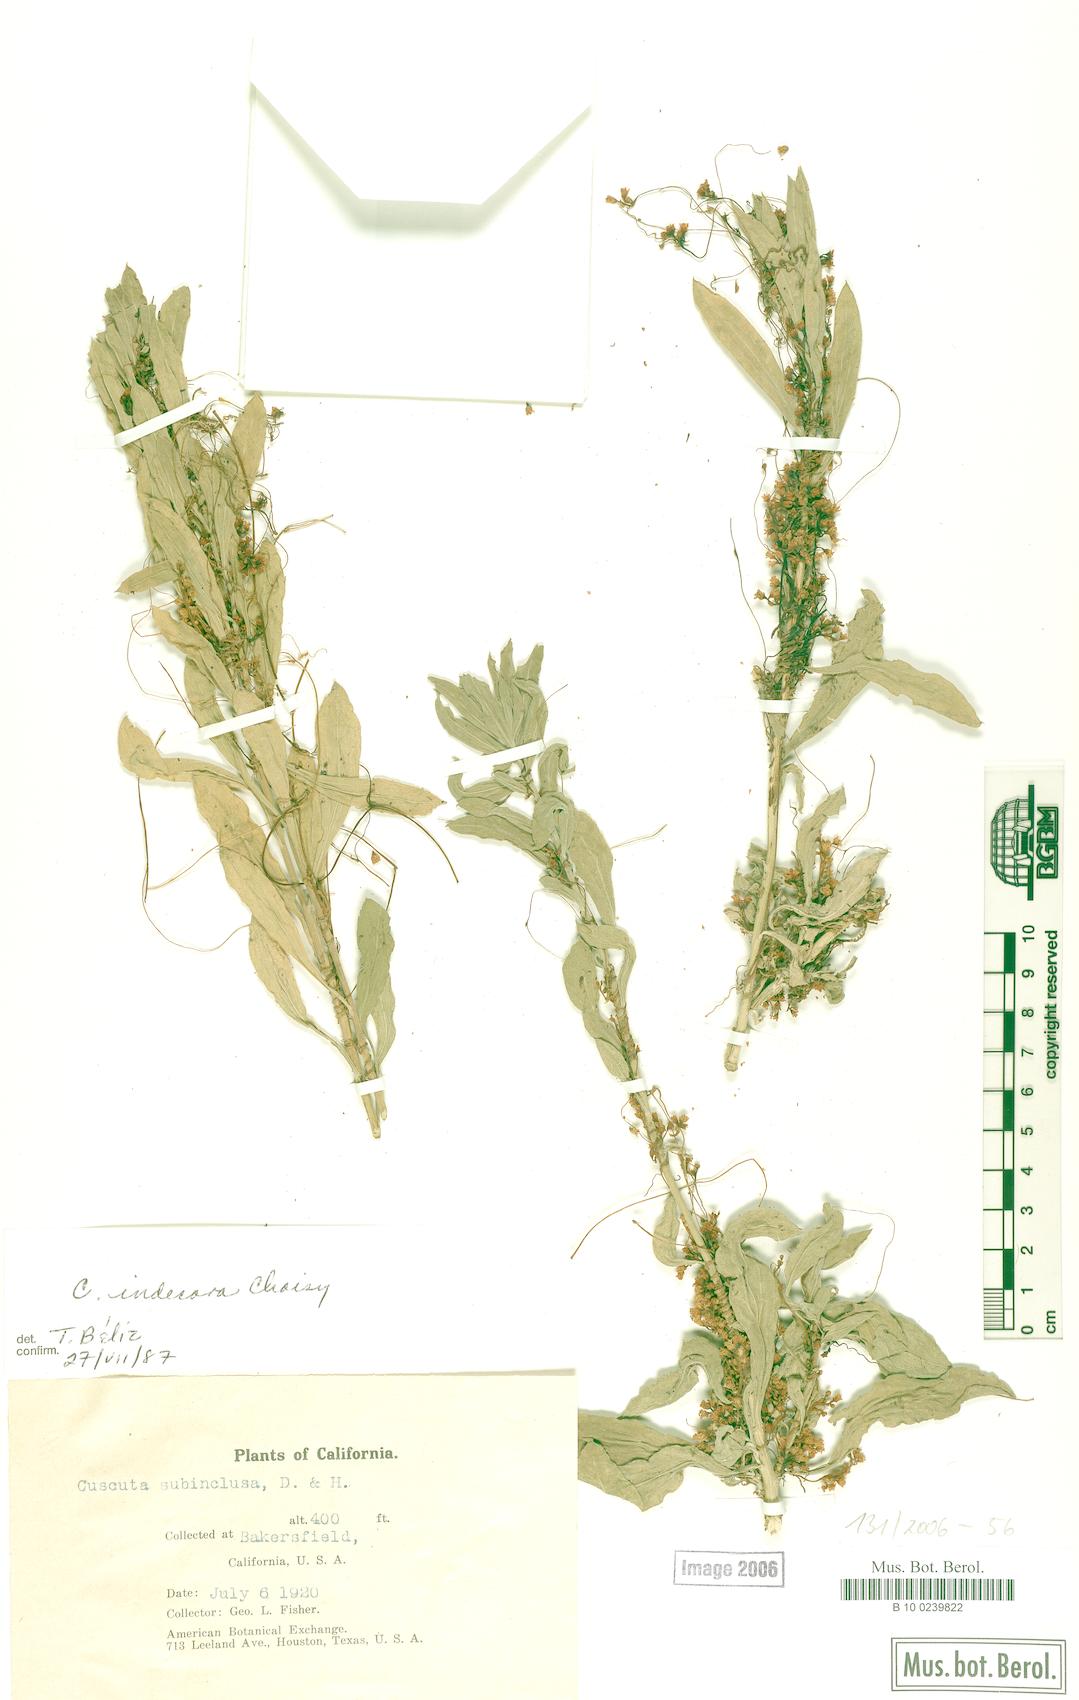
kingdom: Plantae
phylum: Tracheophyta
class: Magnoliopsida
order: Solanales
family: Convolvulaceae
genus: Cuscuta
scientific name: Cuscuta indecora
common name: Large-seed dodder
